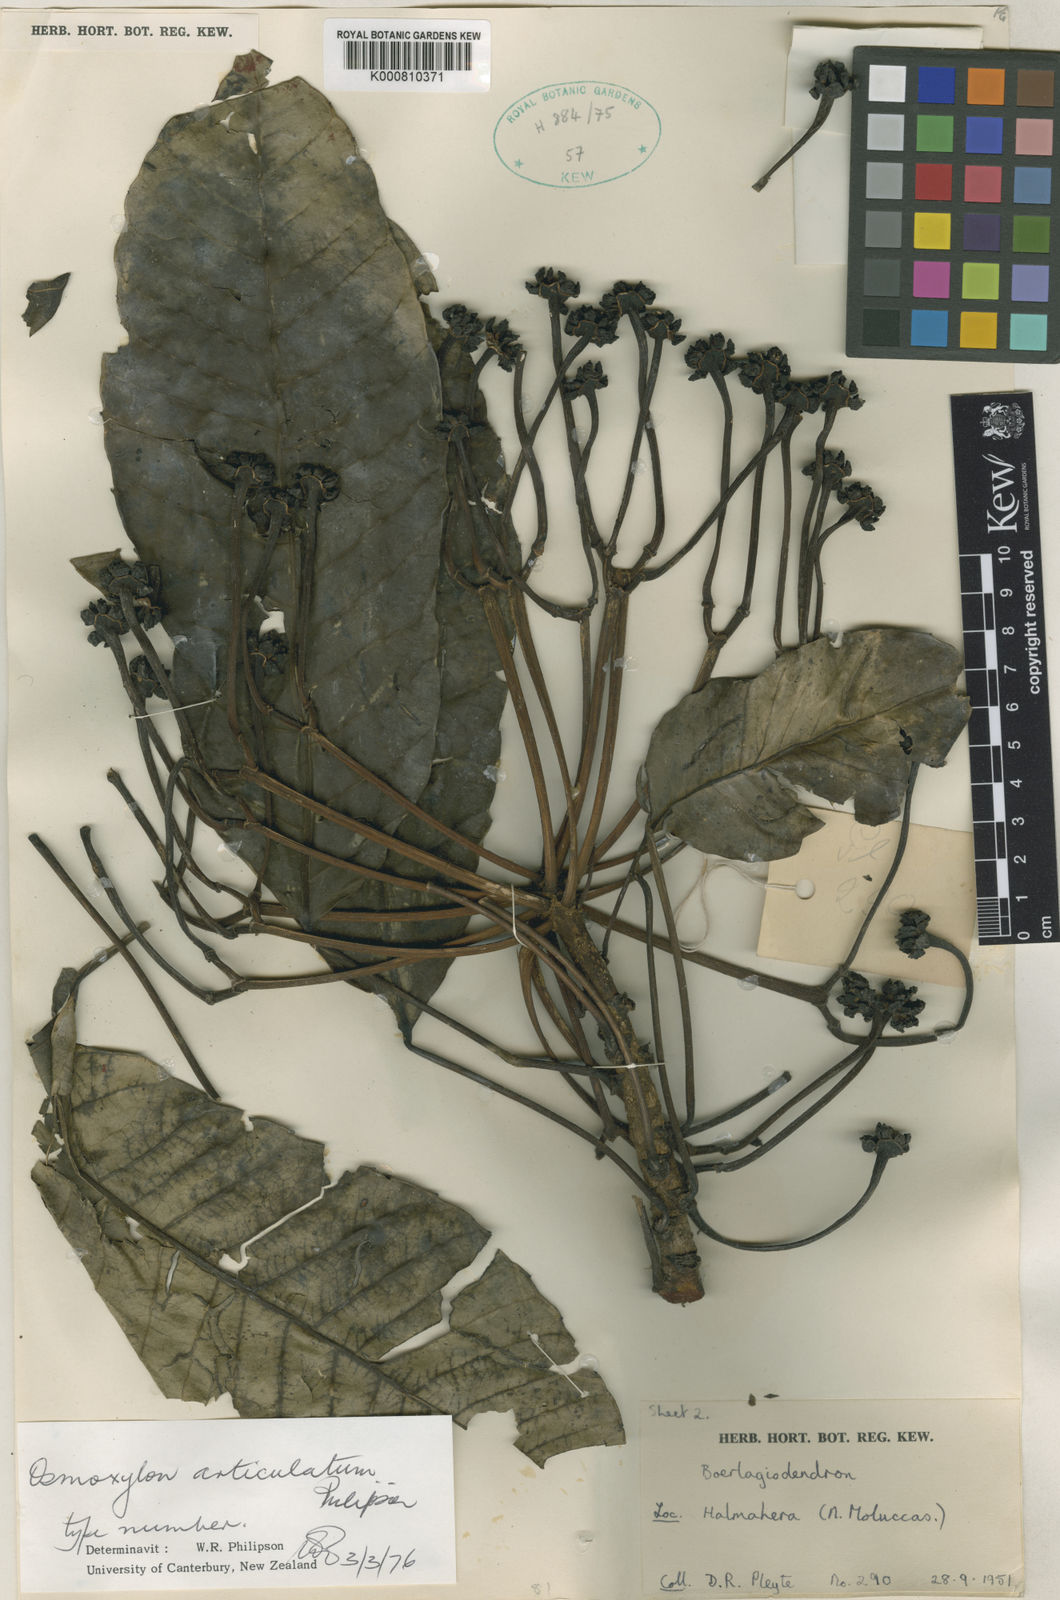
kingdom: Plantae
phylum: Tracheophyta
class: Magnoliopsida
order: Apiales
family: Araliaceae
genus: Osmoxylon
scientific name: Osmoxylon articulatum
